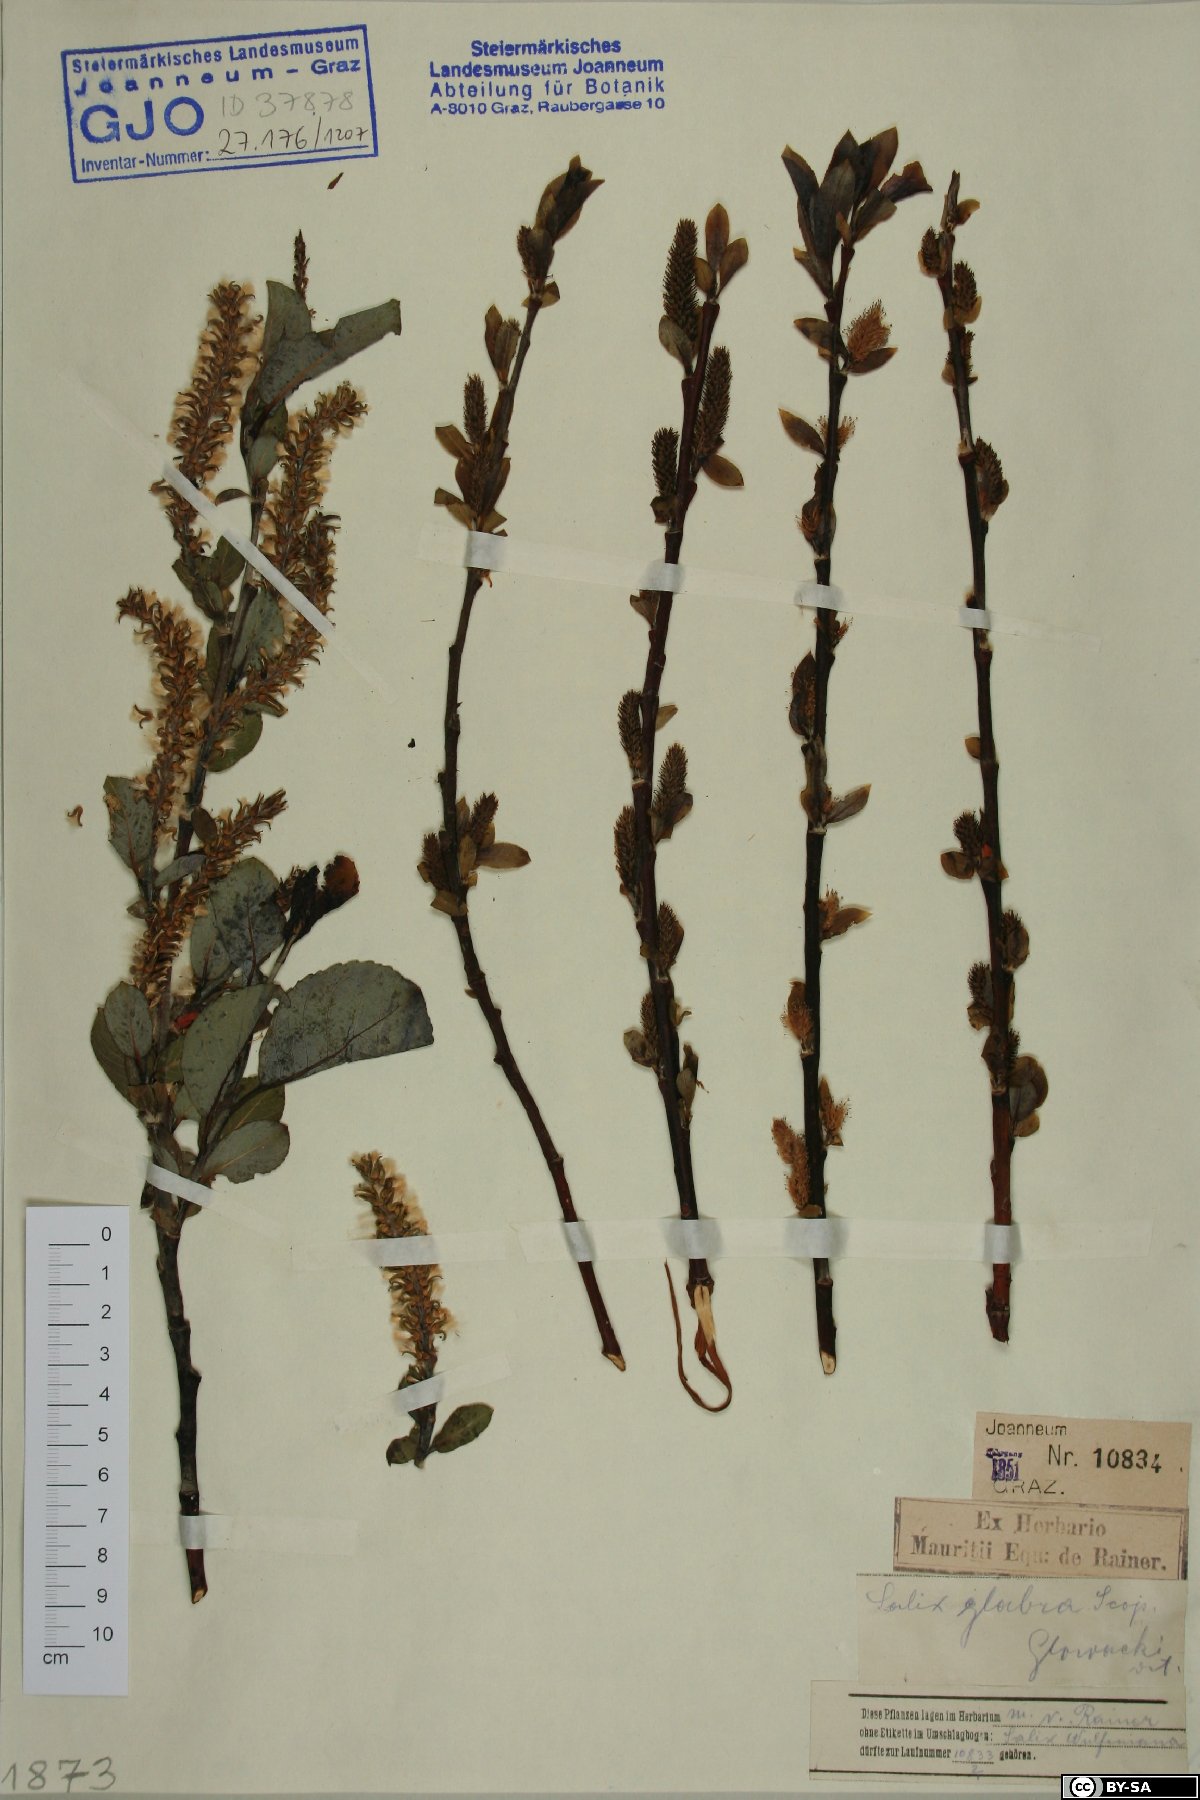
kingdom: Plantae
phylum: Tracheophyta
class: Magnoliopsida
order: Malpighiales
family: Salicaceae
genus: Salix
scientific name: Salix glabra
